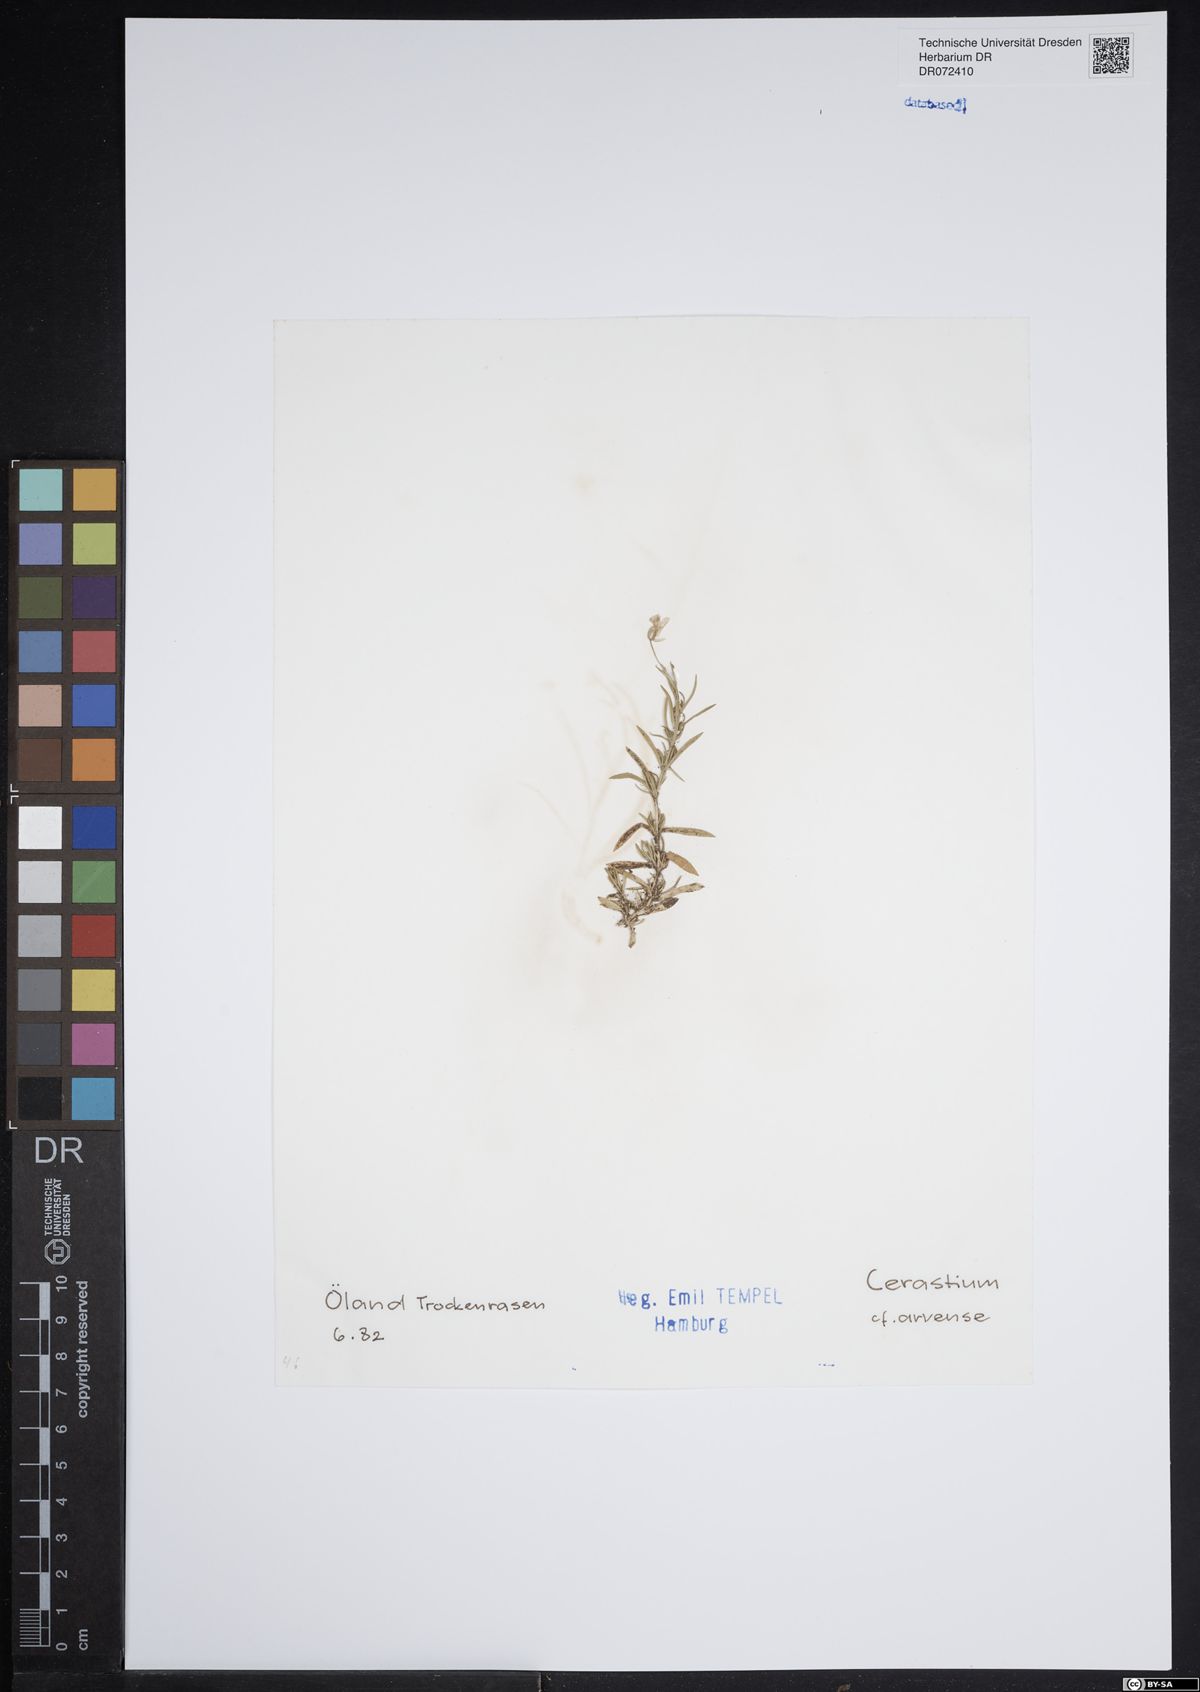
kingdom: Plantae
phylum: Tracheophyta
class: Magnoliopsida
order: Caryophyllales
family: Caryophyllaceae
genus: Cerastium
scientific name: Cerastium arvense
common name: Field mouse-ear
